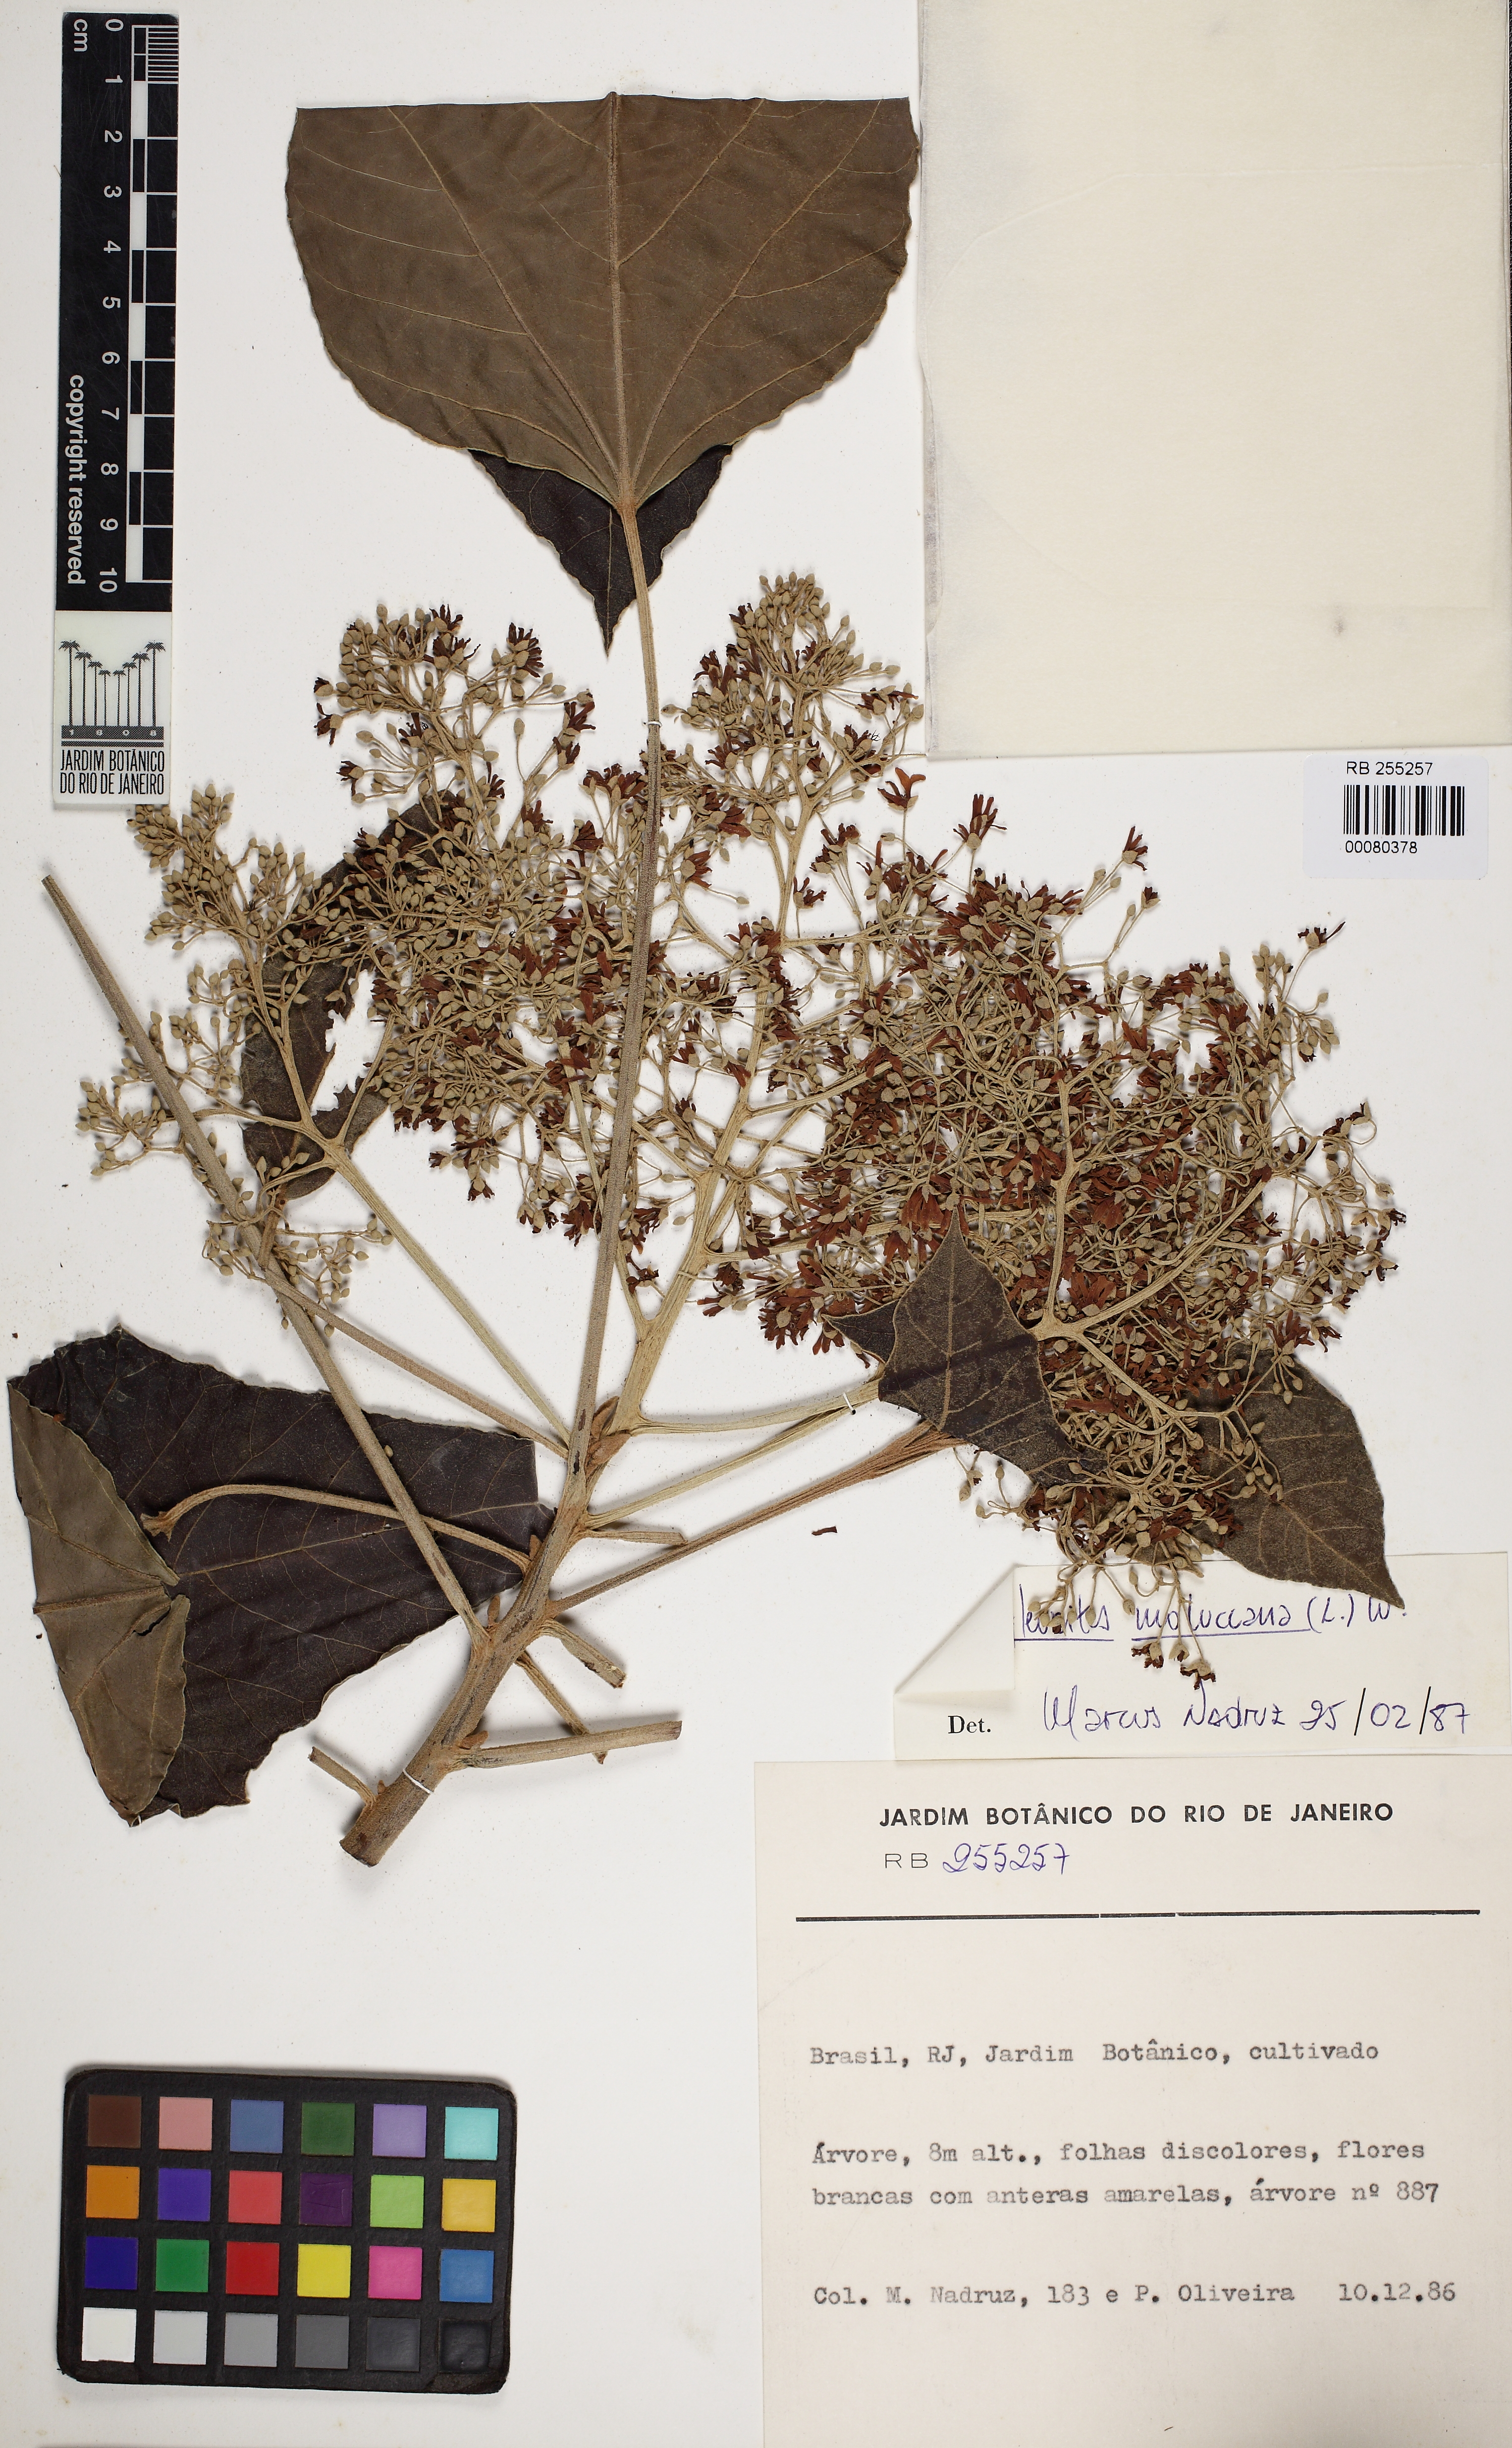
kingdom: Plantae
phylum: Tracheophyta
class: Magnoliopsida
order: Malpighiales
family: Euphorbiaceae
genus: Aleurites
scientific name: Aleurites moluccanus
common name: Candlenut tree
